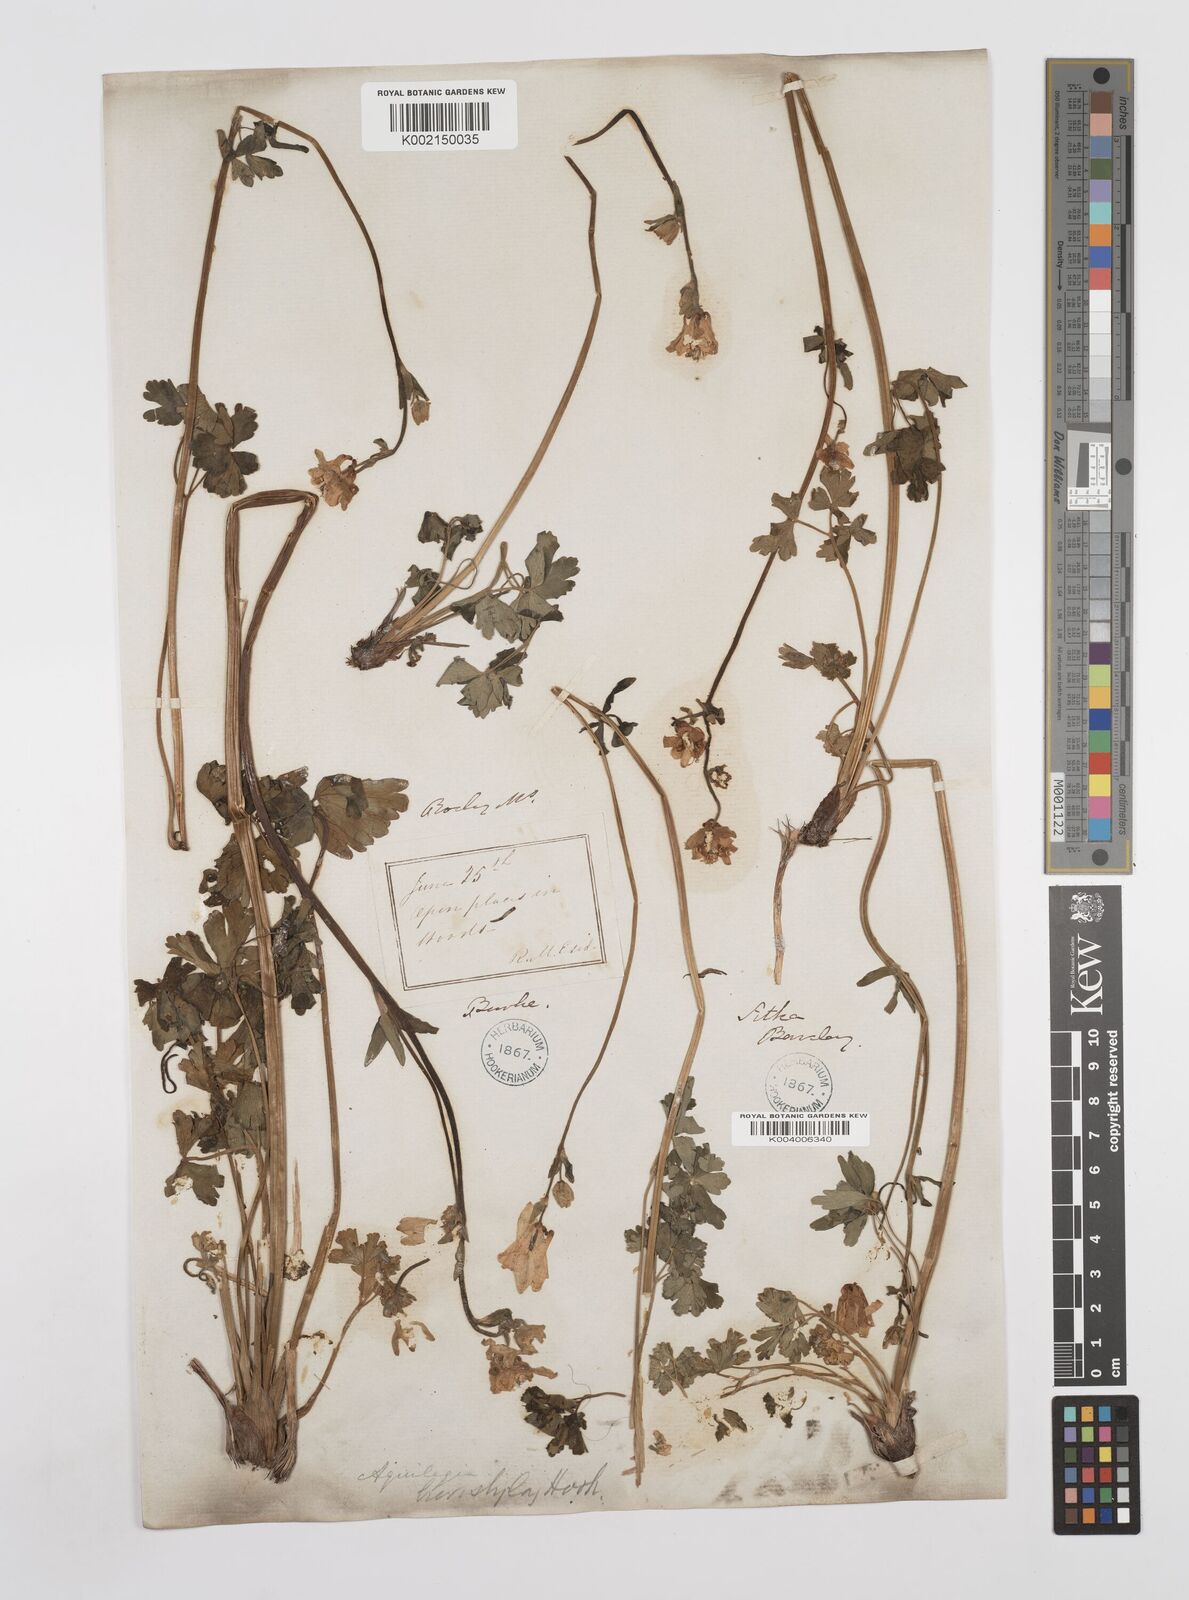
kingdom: Plantae
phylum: Tracheophyta
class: Magnoliopsida
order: Ranunculales
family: Ranunculaceae
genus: Aquilegia
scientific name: Aquilegia brevistyla
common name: Yukon columbine
